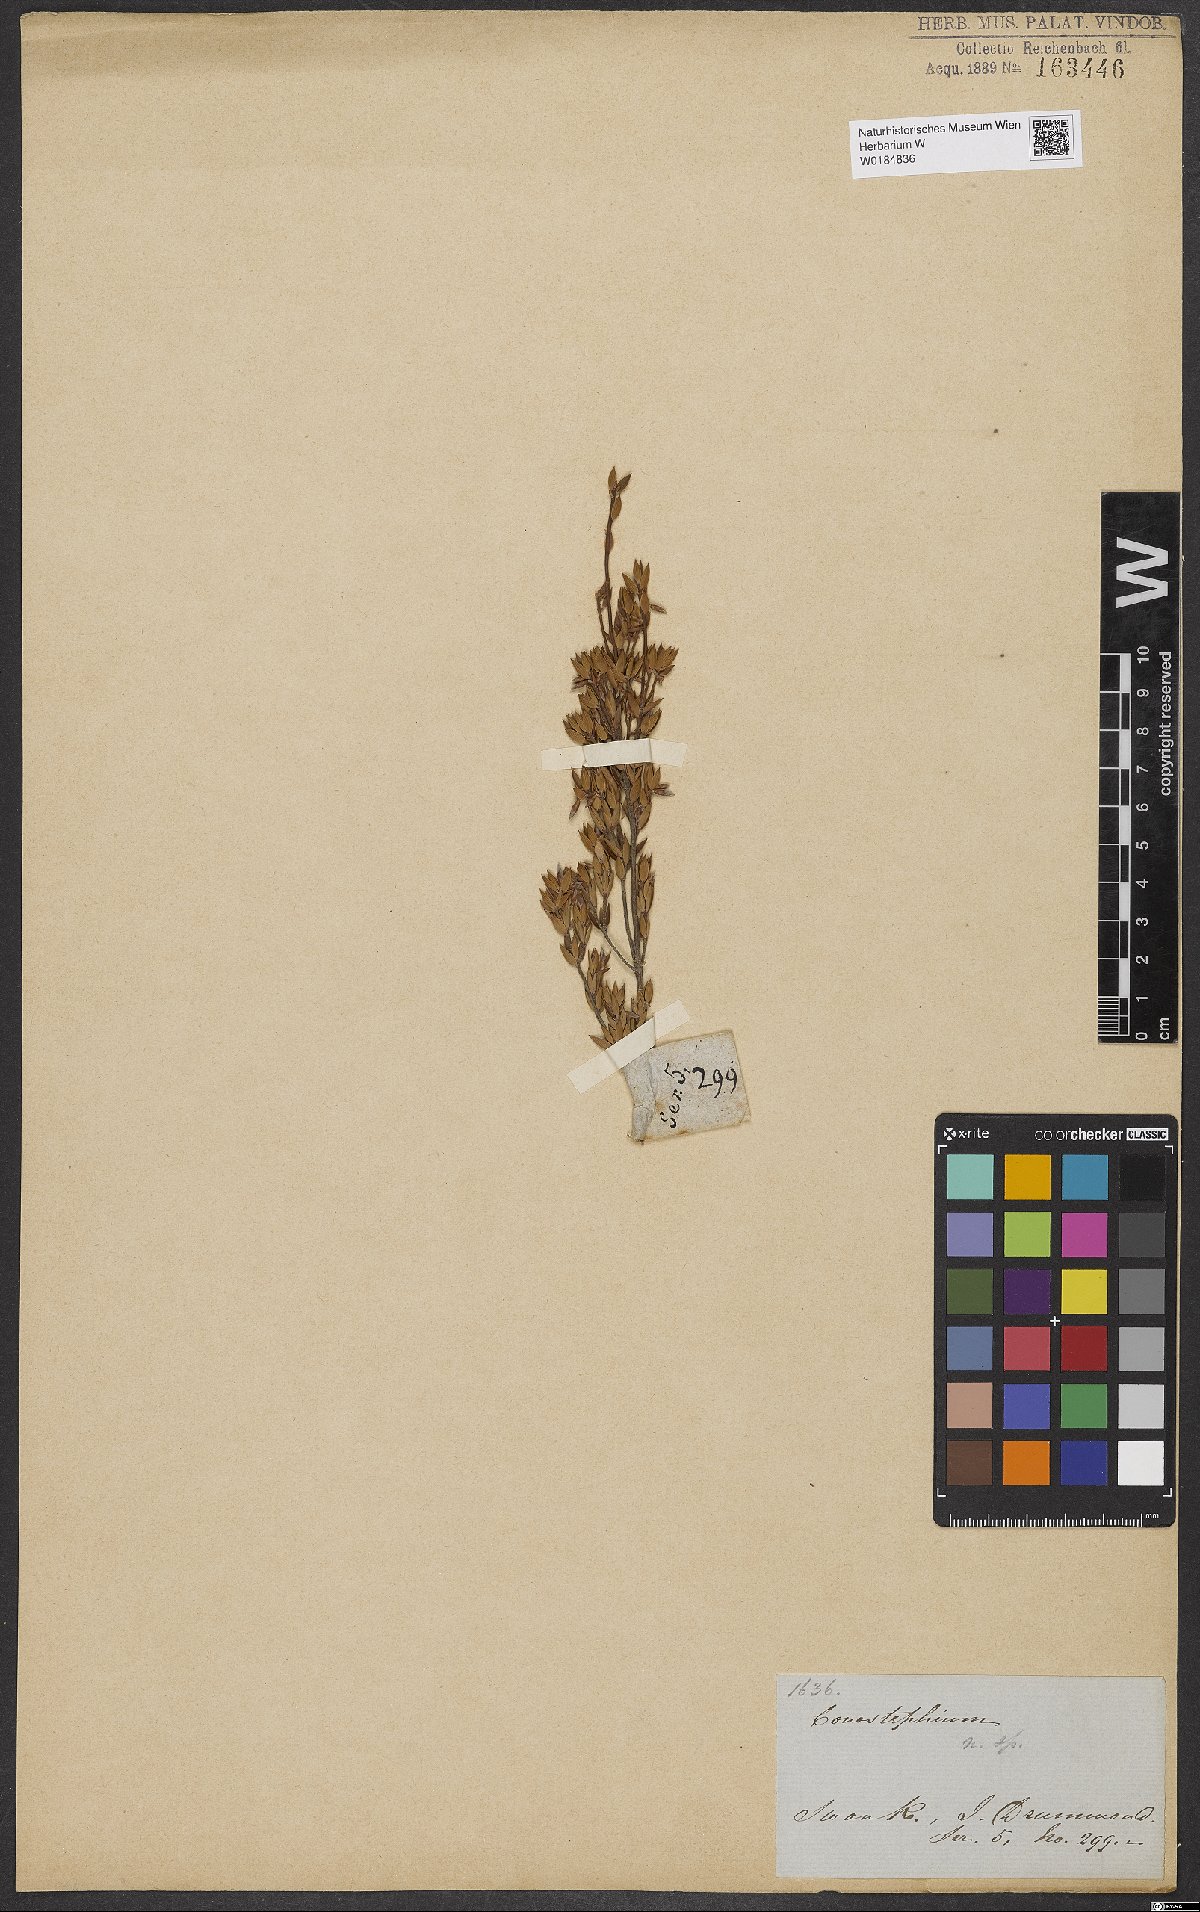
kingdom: Plantae
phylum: Tracheophyta
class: Magnoliopsida
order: Ericales
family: Ericaceae
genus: Conostephium
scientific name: Conostephium
